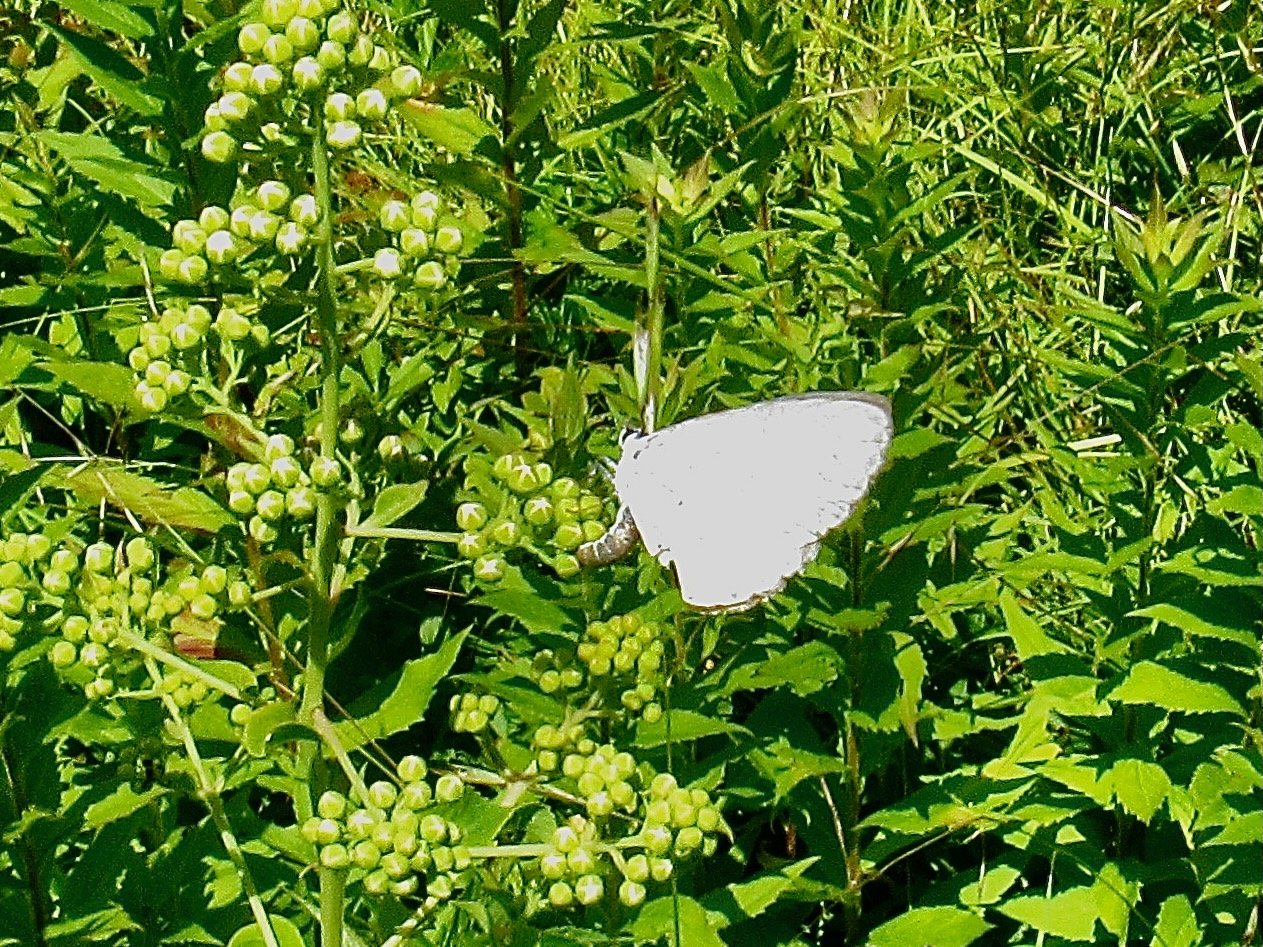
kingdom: Animalia
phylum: Arthropoda
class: Insecta
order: Lepidoptera
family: Lycaenidae
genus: Celastrina
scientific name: Celastrina
